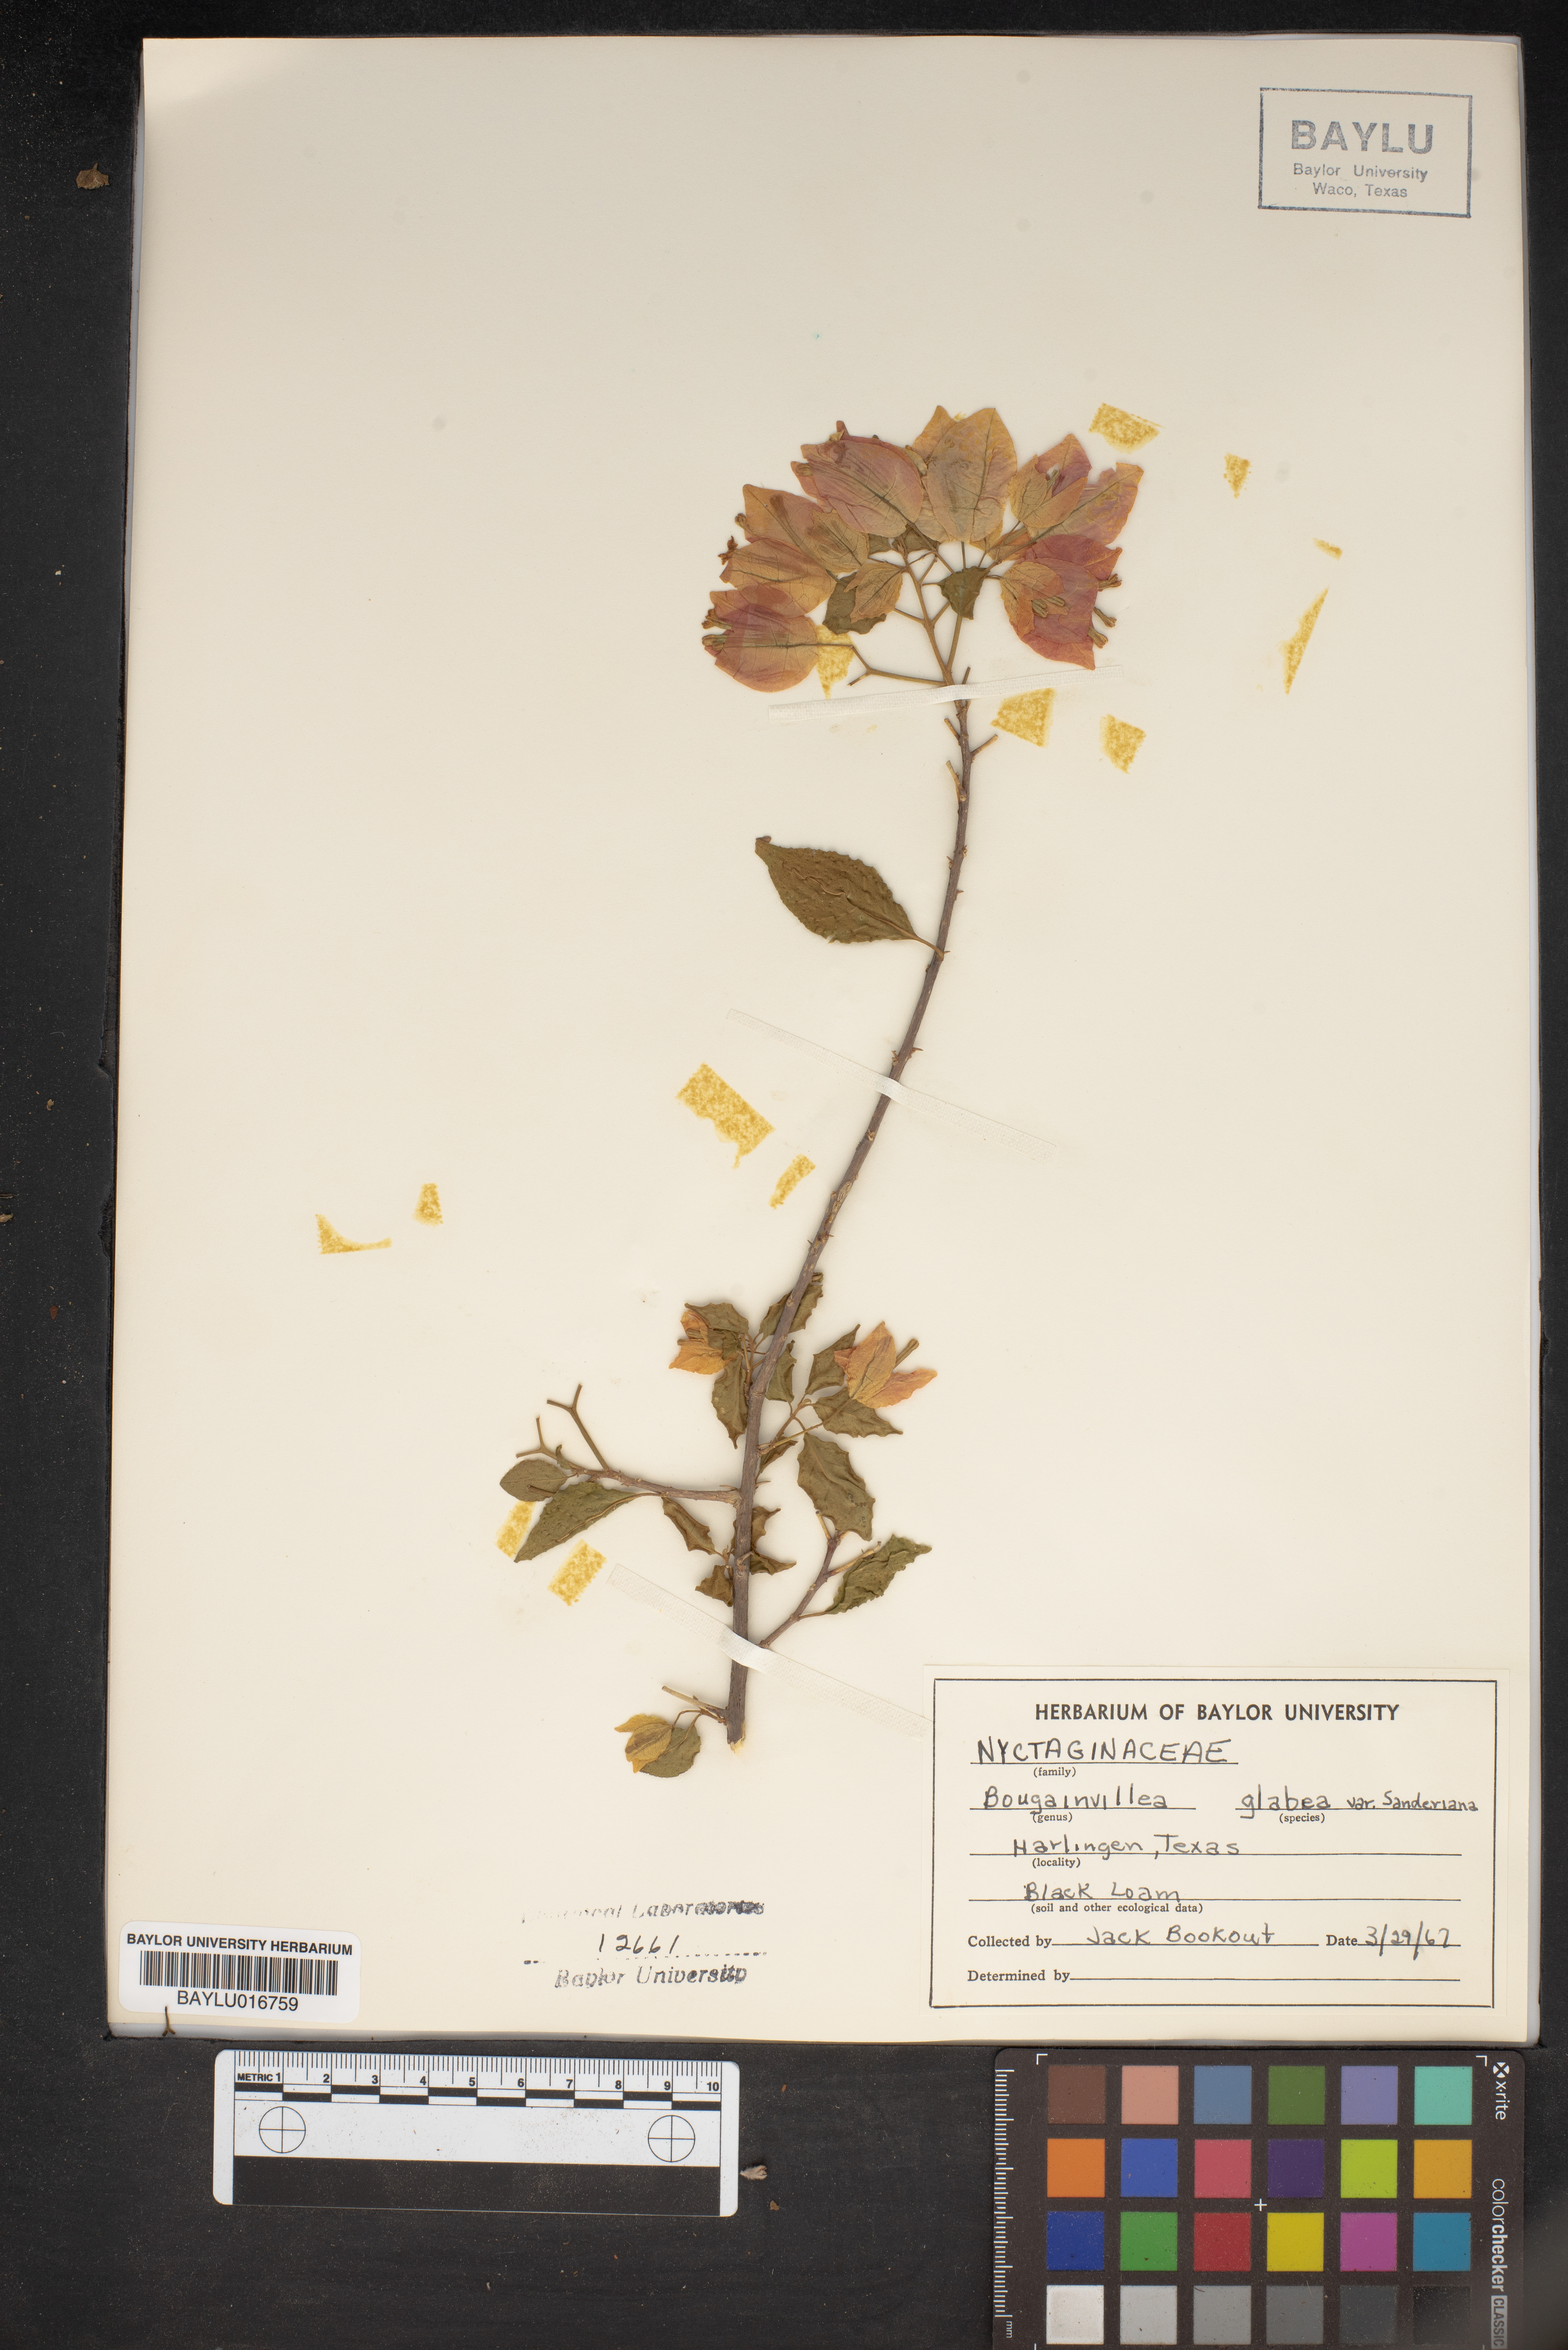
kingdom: Plantae
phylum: Tracheophyta
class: Magnoliopsida
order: Caryophyllales
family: Nyctaginaceae
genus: Bougainvillea
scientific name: Bougainvillea glabra
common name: Paperflower
